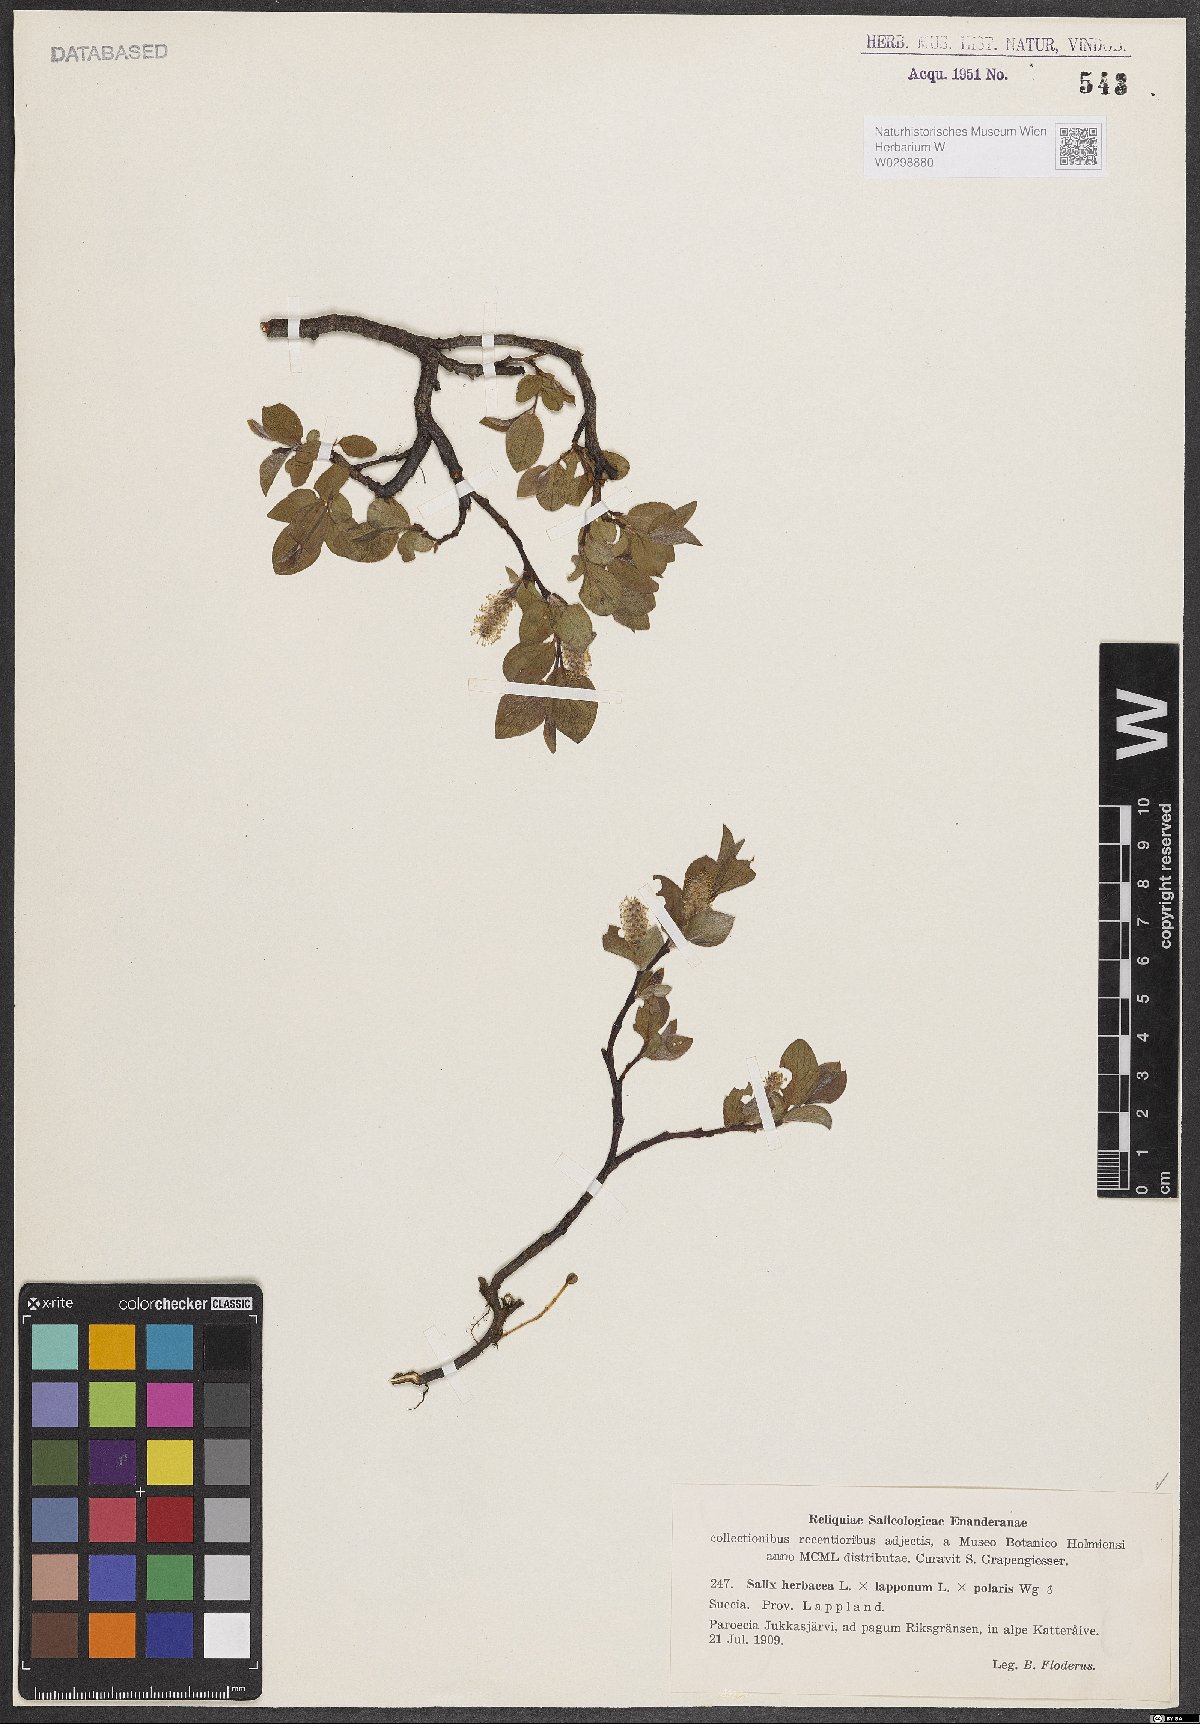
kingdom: Plantae
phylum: Tracheophyta
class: Magnoliopsida
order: Malpighiales
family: Salicaceae
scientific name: Salicaceae
